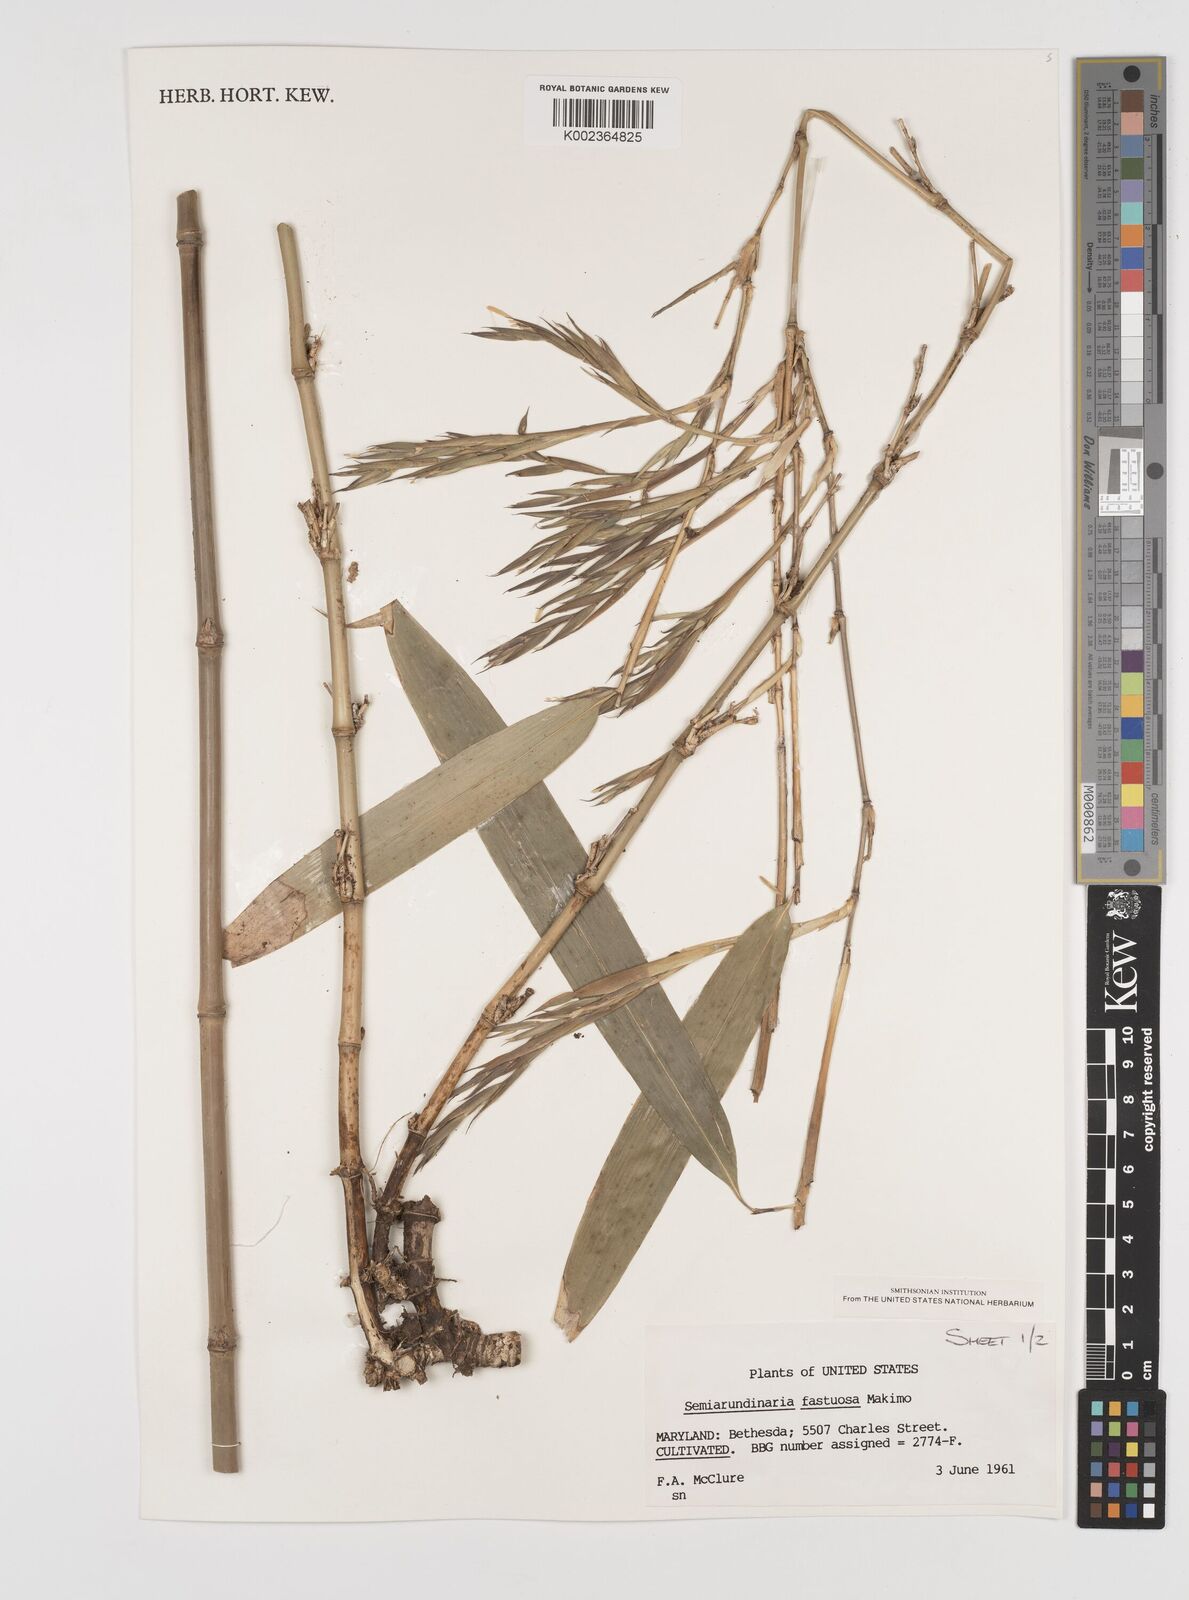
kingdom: Plantae
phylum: Tracheophyta
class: Liliopsida
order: Poales
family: Poaceae
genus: Semiarundinaria
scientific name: Semiarundinaria fastuosa
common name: Narihira bamboo
